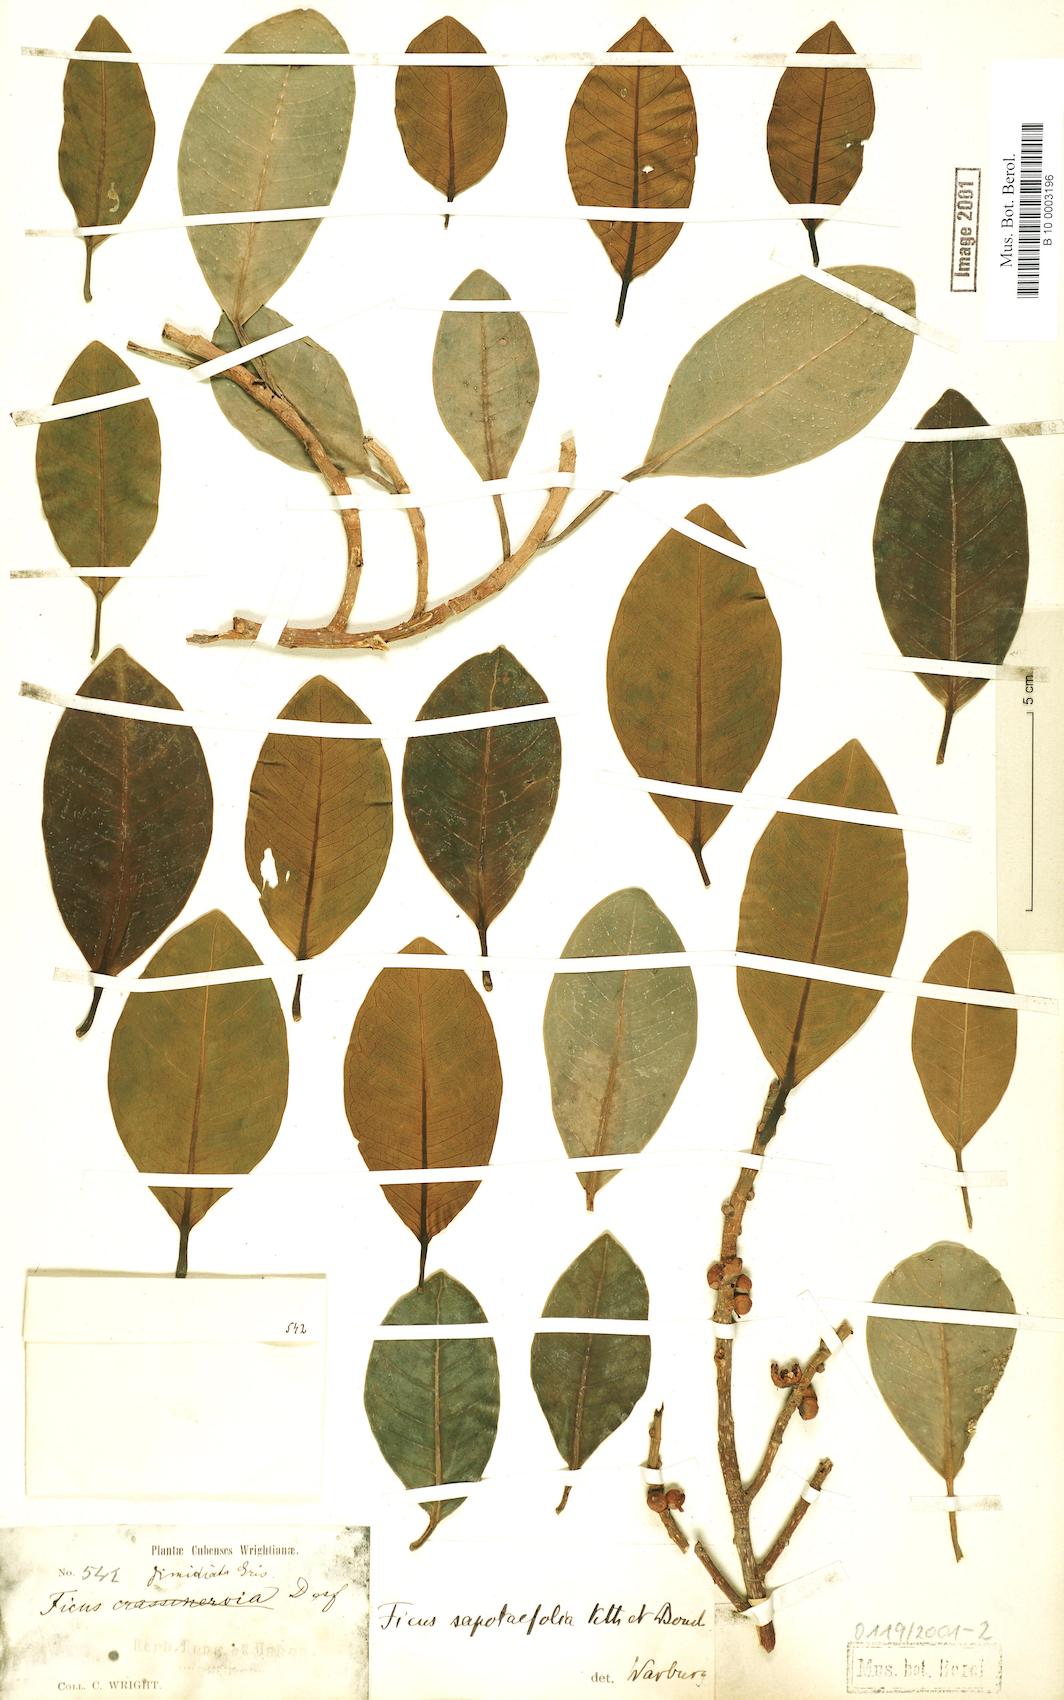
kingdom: Plantae
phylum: Tracheophyta
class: Magnoliopsida
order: Rosales
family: Moraceae
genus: Ficus
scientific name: Ficus aurea
